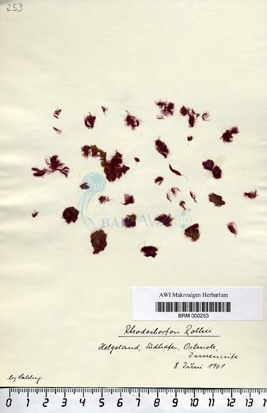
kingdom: Plantae
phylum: Rhodophyta
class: Florideophyceae
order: Acrochaetiales
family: Rhodochortonaceae
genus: Rhodochorton
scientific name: Rhodochorton purpureum
